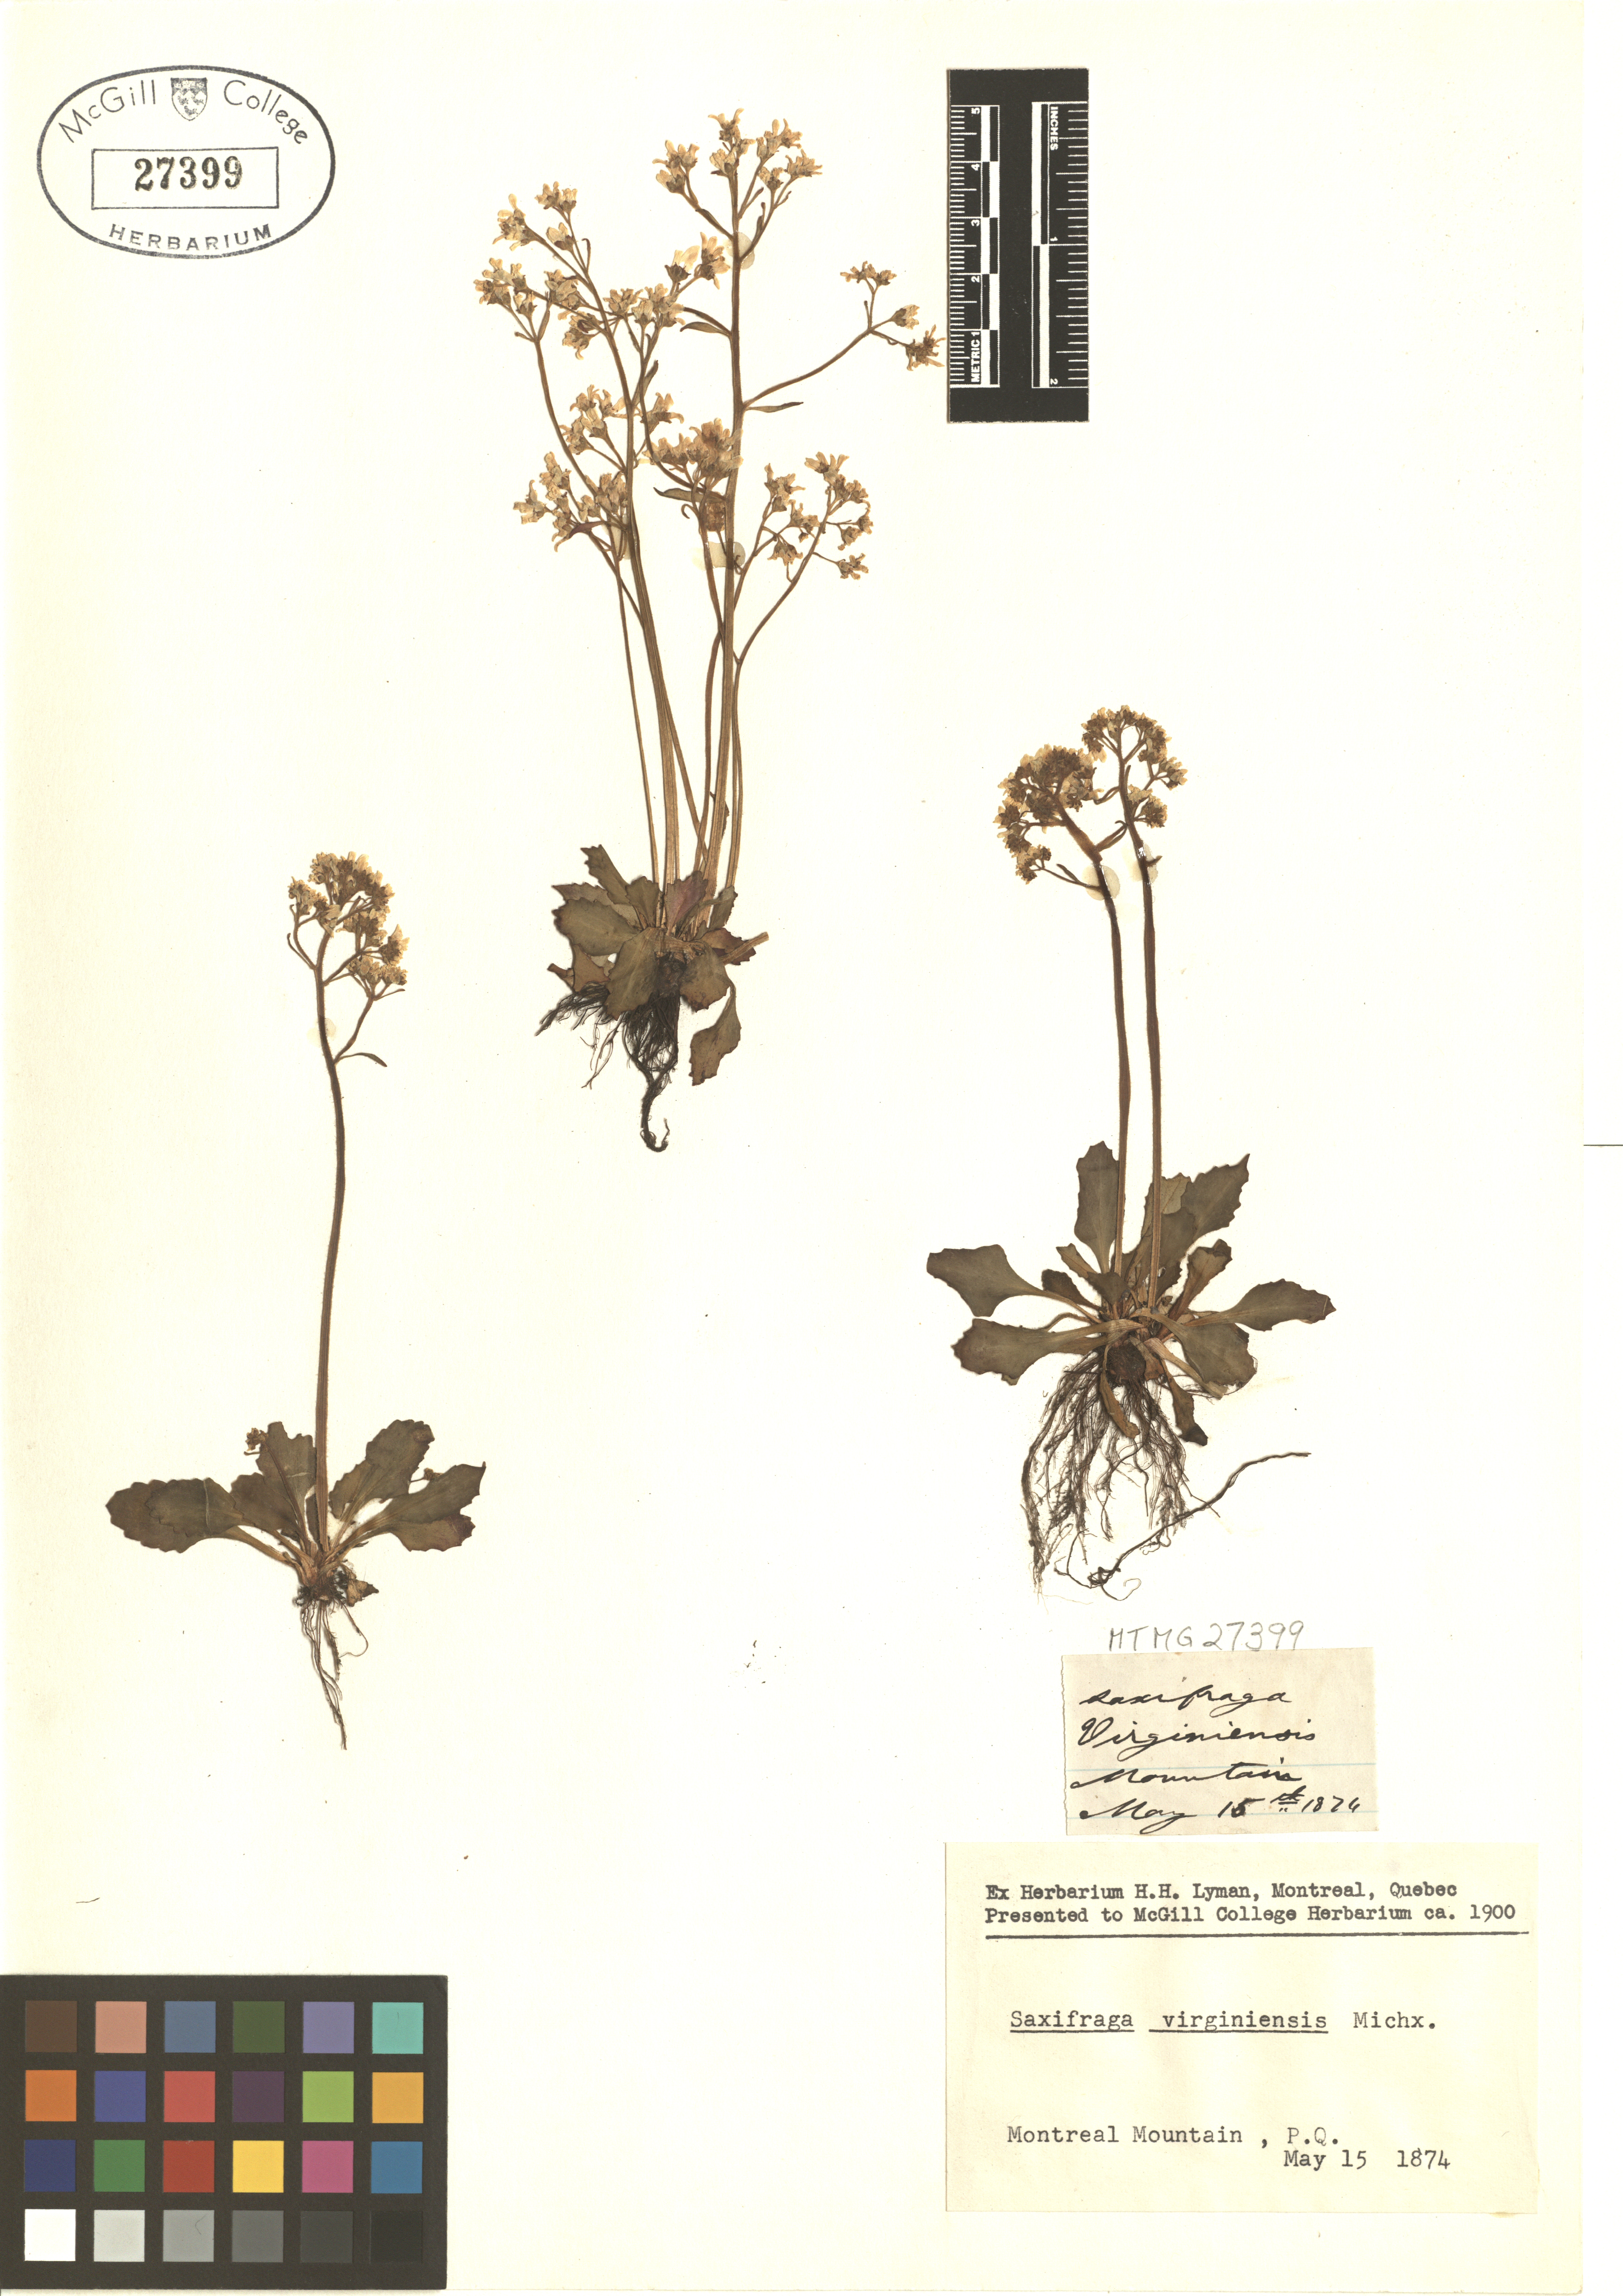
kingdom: Plantae
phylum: Tracheophyta
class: Magnoliopsida
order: Saxifragales
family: Saxifragaceae
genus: Micranthes
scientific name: Micranthes virginiensis
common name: Early saxifrage
